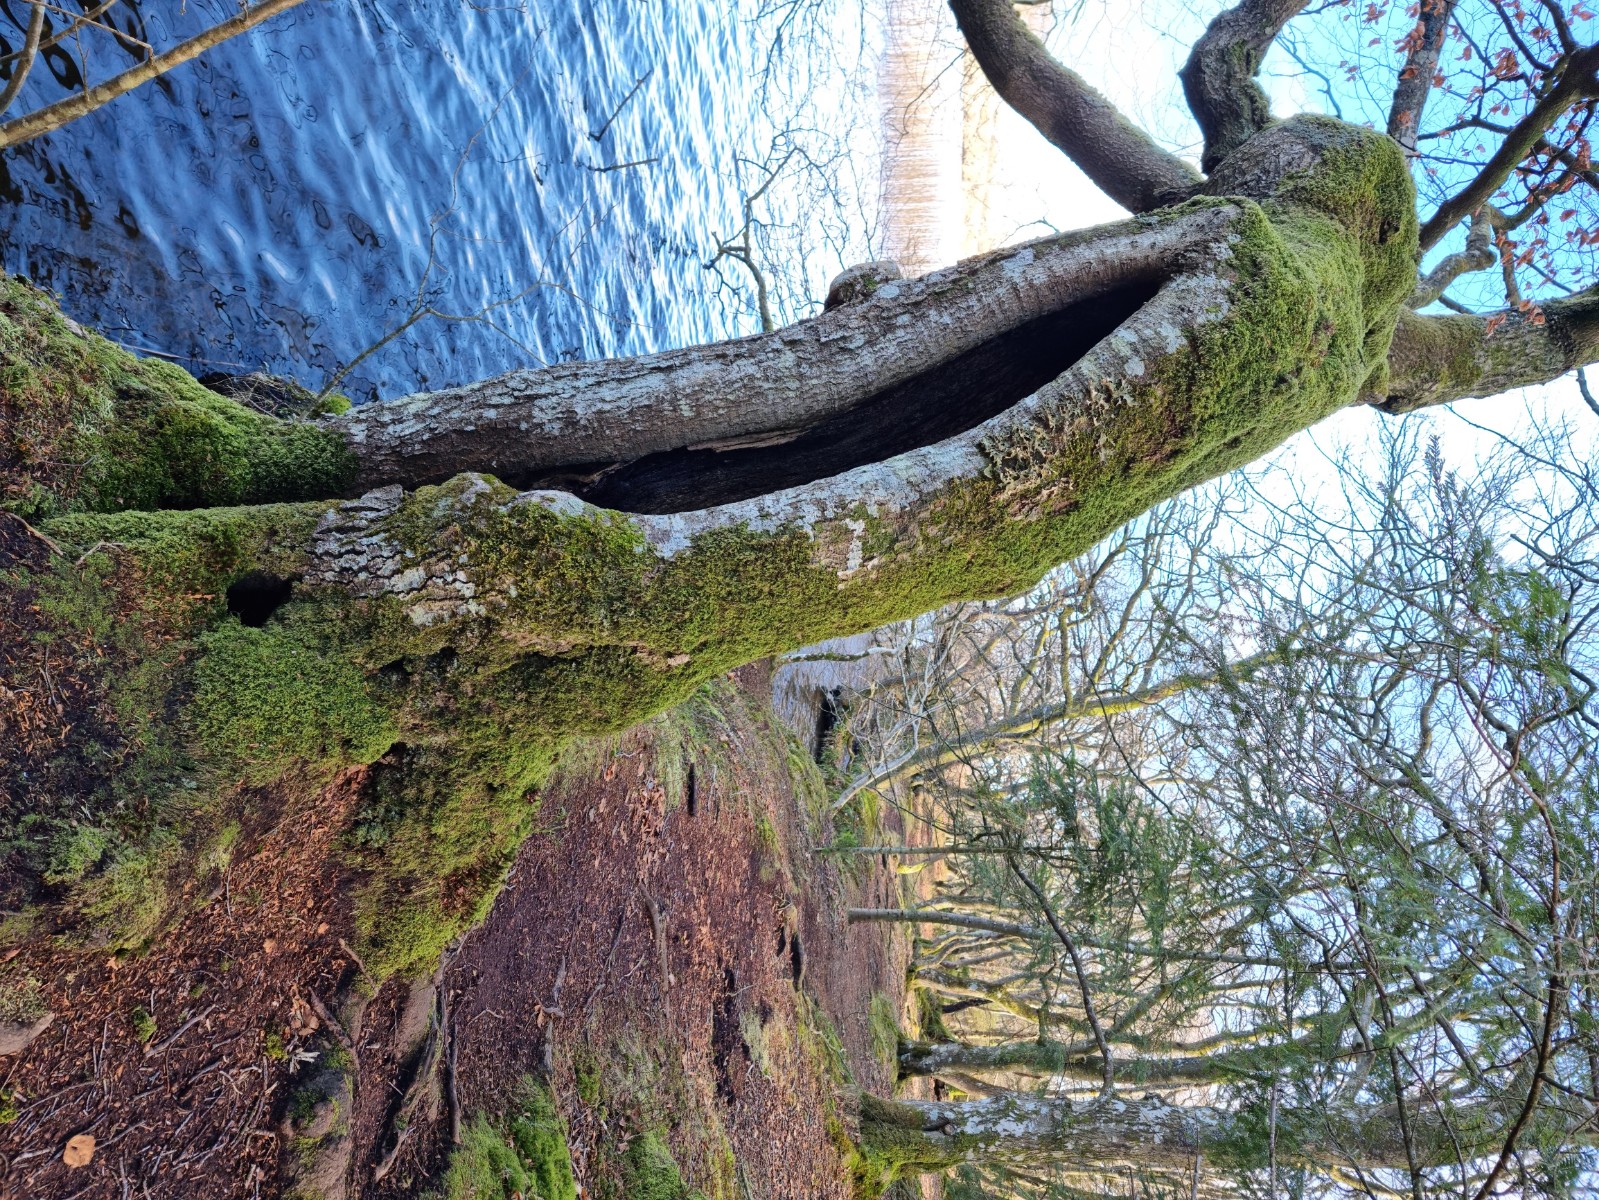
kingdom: Fungi
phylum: Ascomycota
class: Lecanoromycetes
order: Peltigerales
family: Lobariaceae
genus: Lobaria
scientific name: Lobaria pulmonaria
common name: almindelig lungelav
